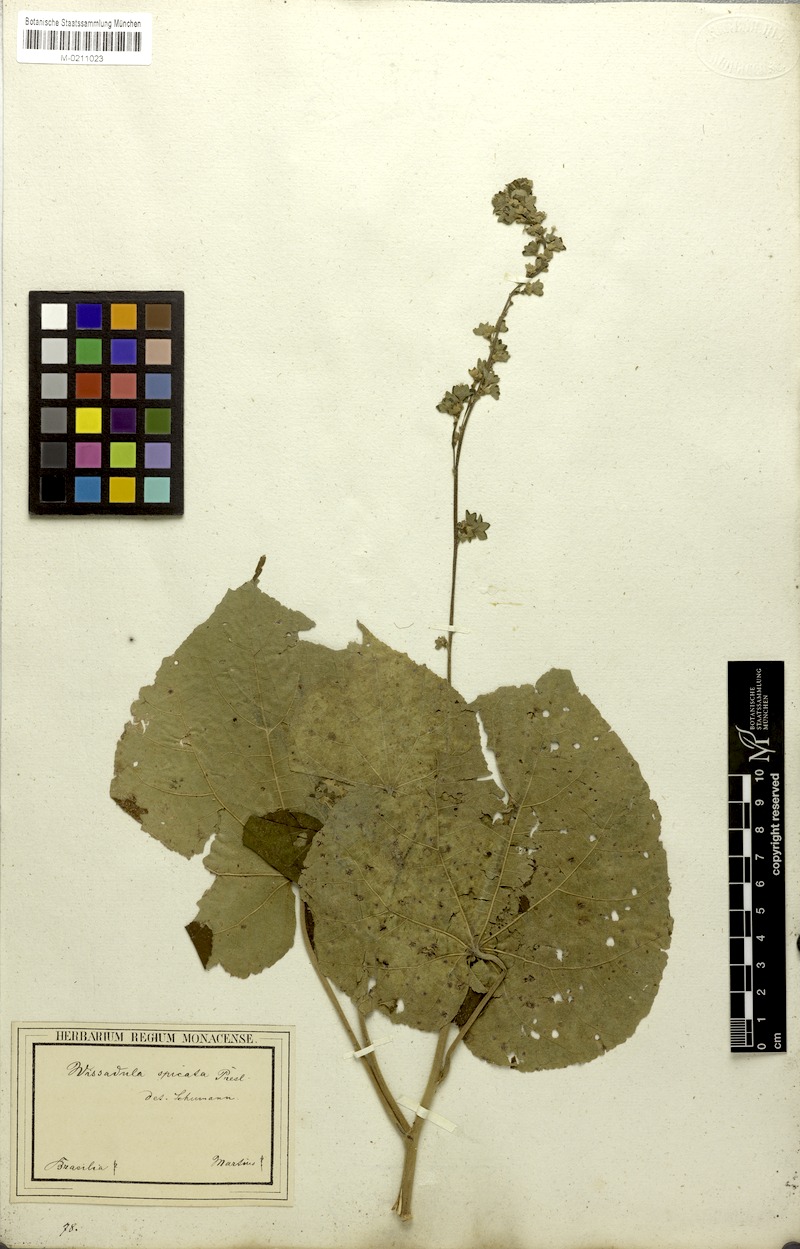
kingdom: Plantae
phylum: Tracheophyta
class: Magnoliopsida
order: Malvales
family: Malvaceae
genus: Allobriquetia
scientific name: Allobriquetia spicata
